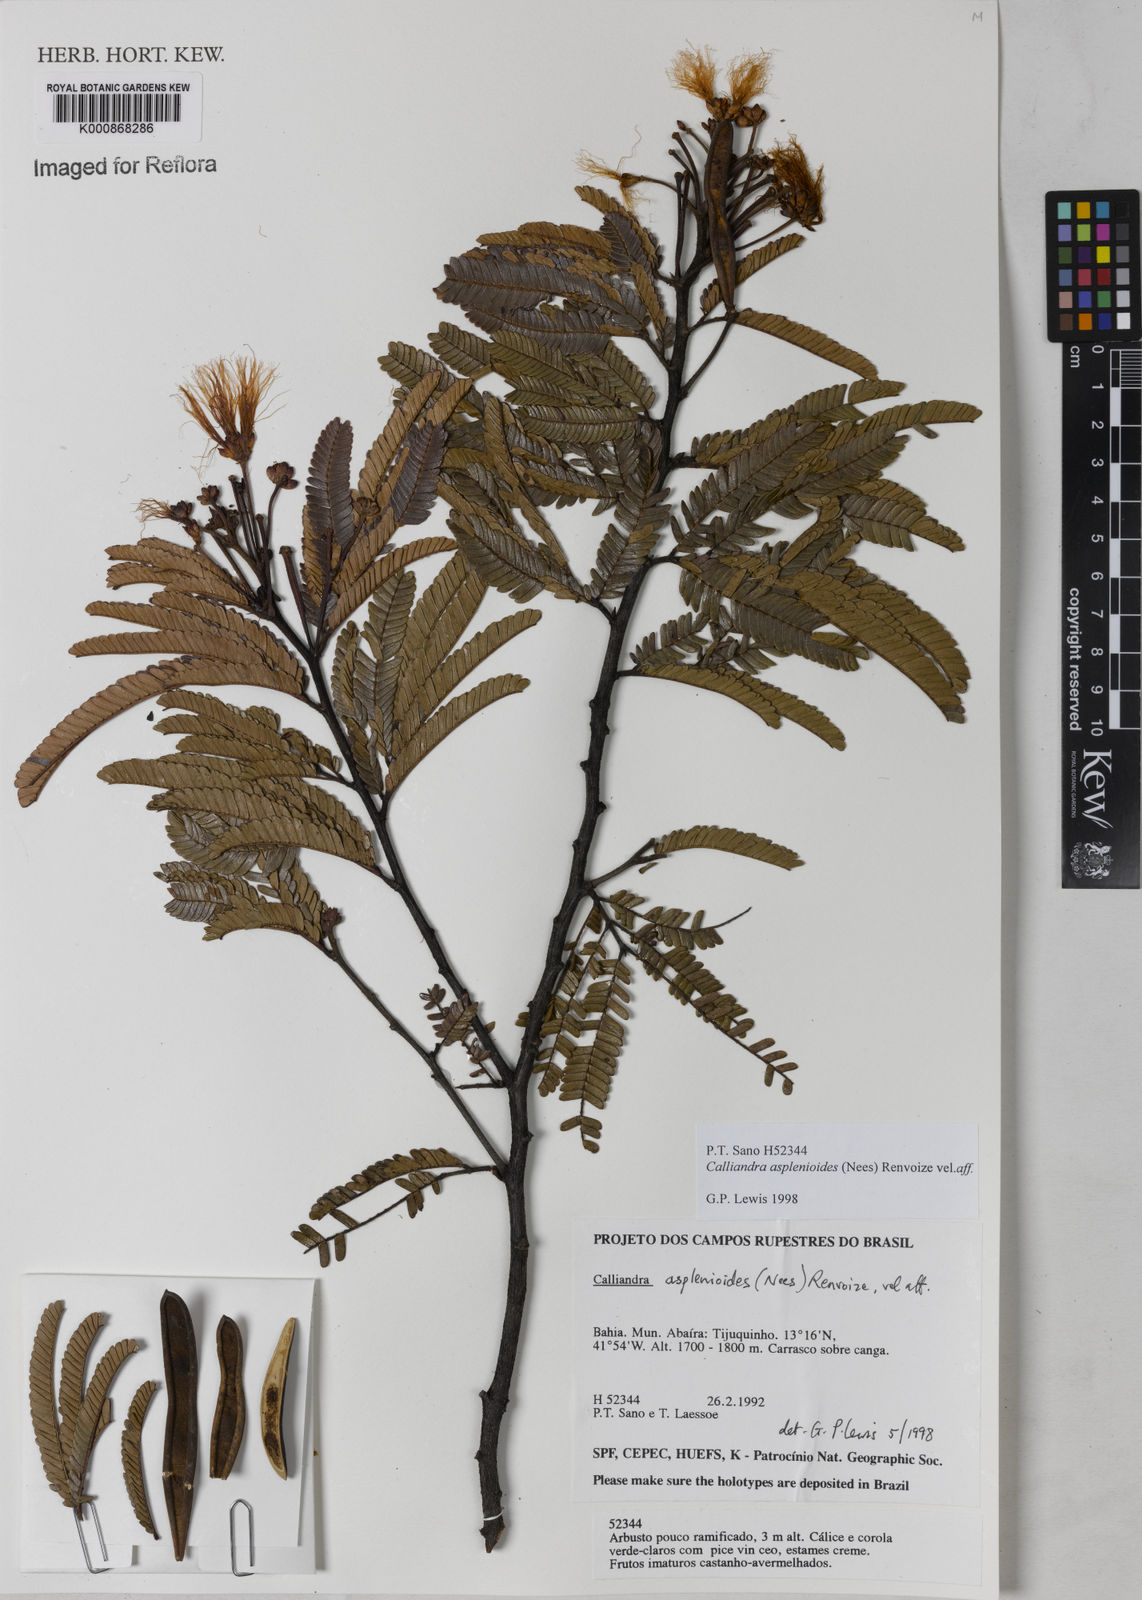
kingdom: Plantae
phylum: Tracheophyta
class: Magnoliopsida
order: Fabales
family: Fabaceae
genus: Calliandra
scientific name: Calliandra
